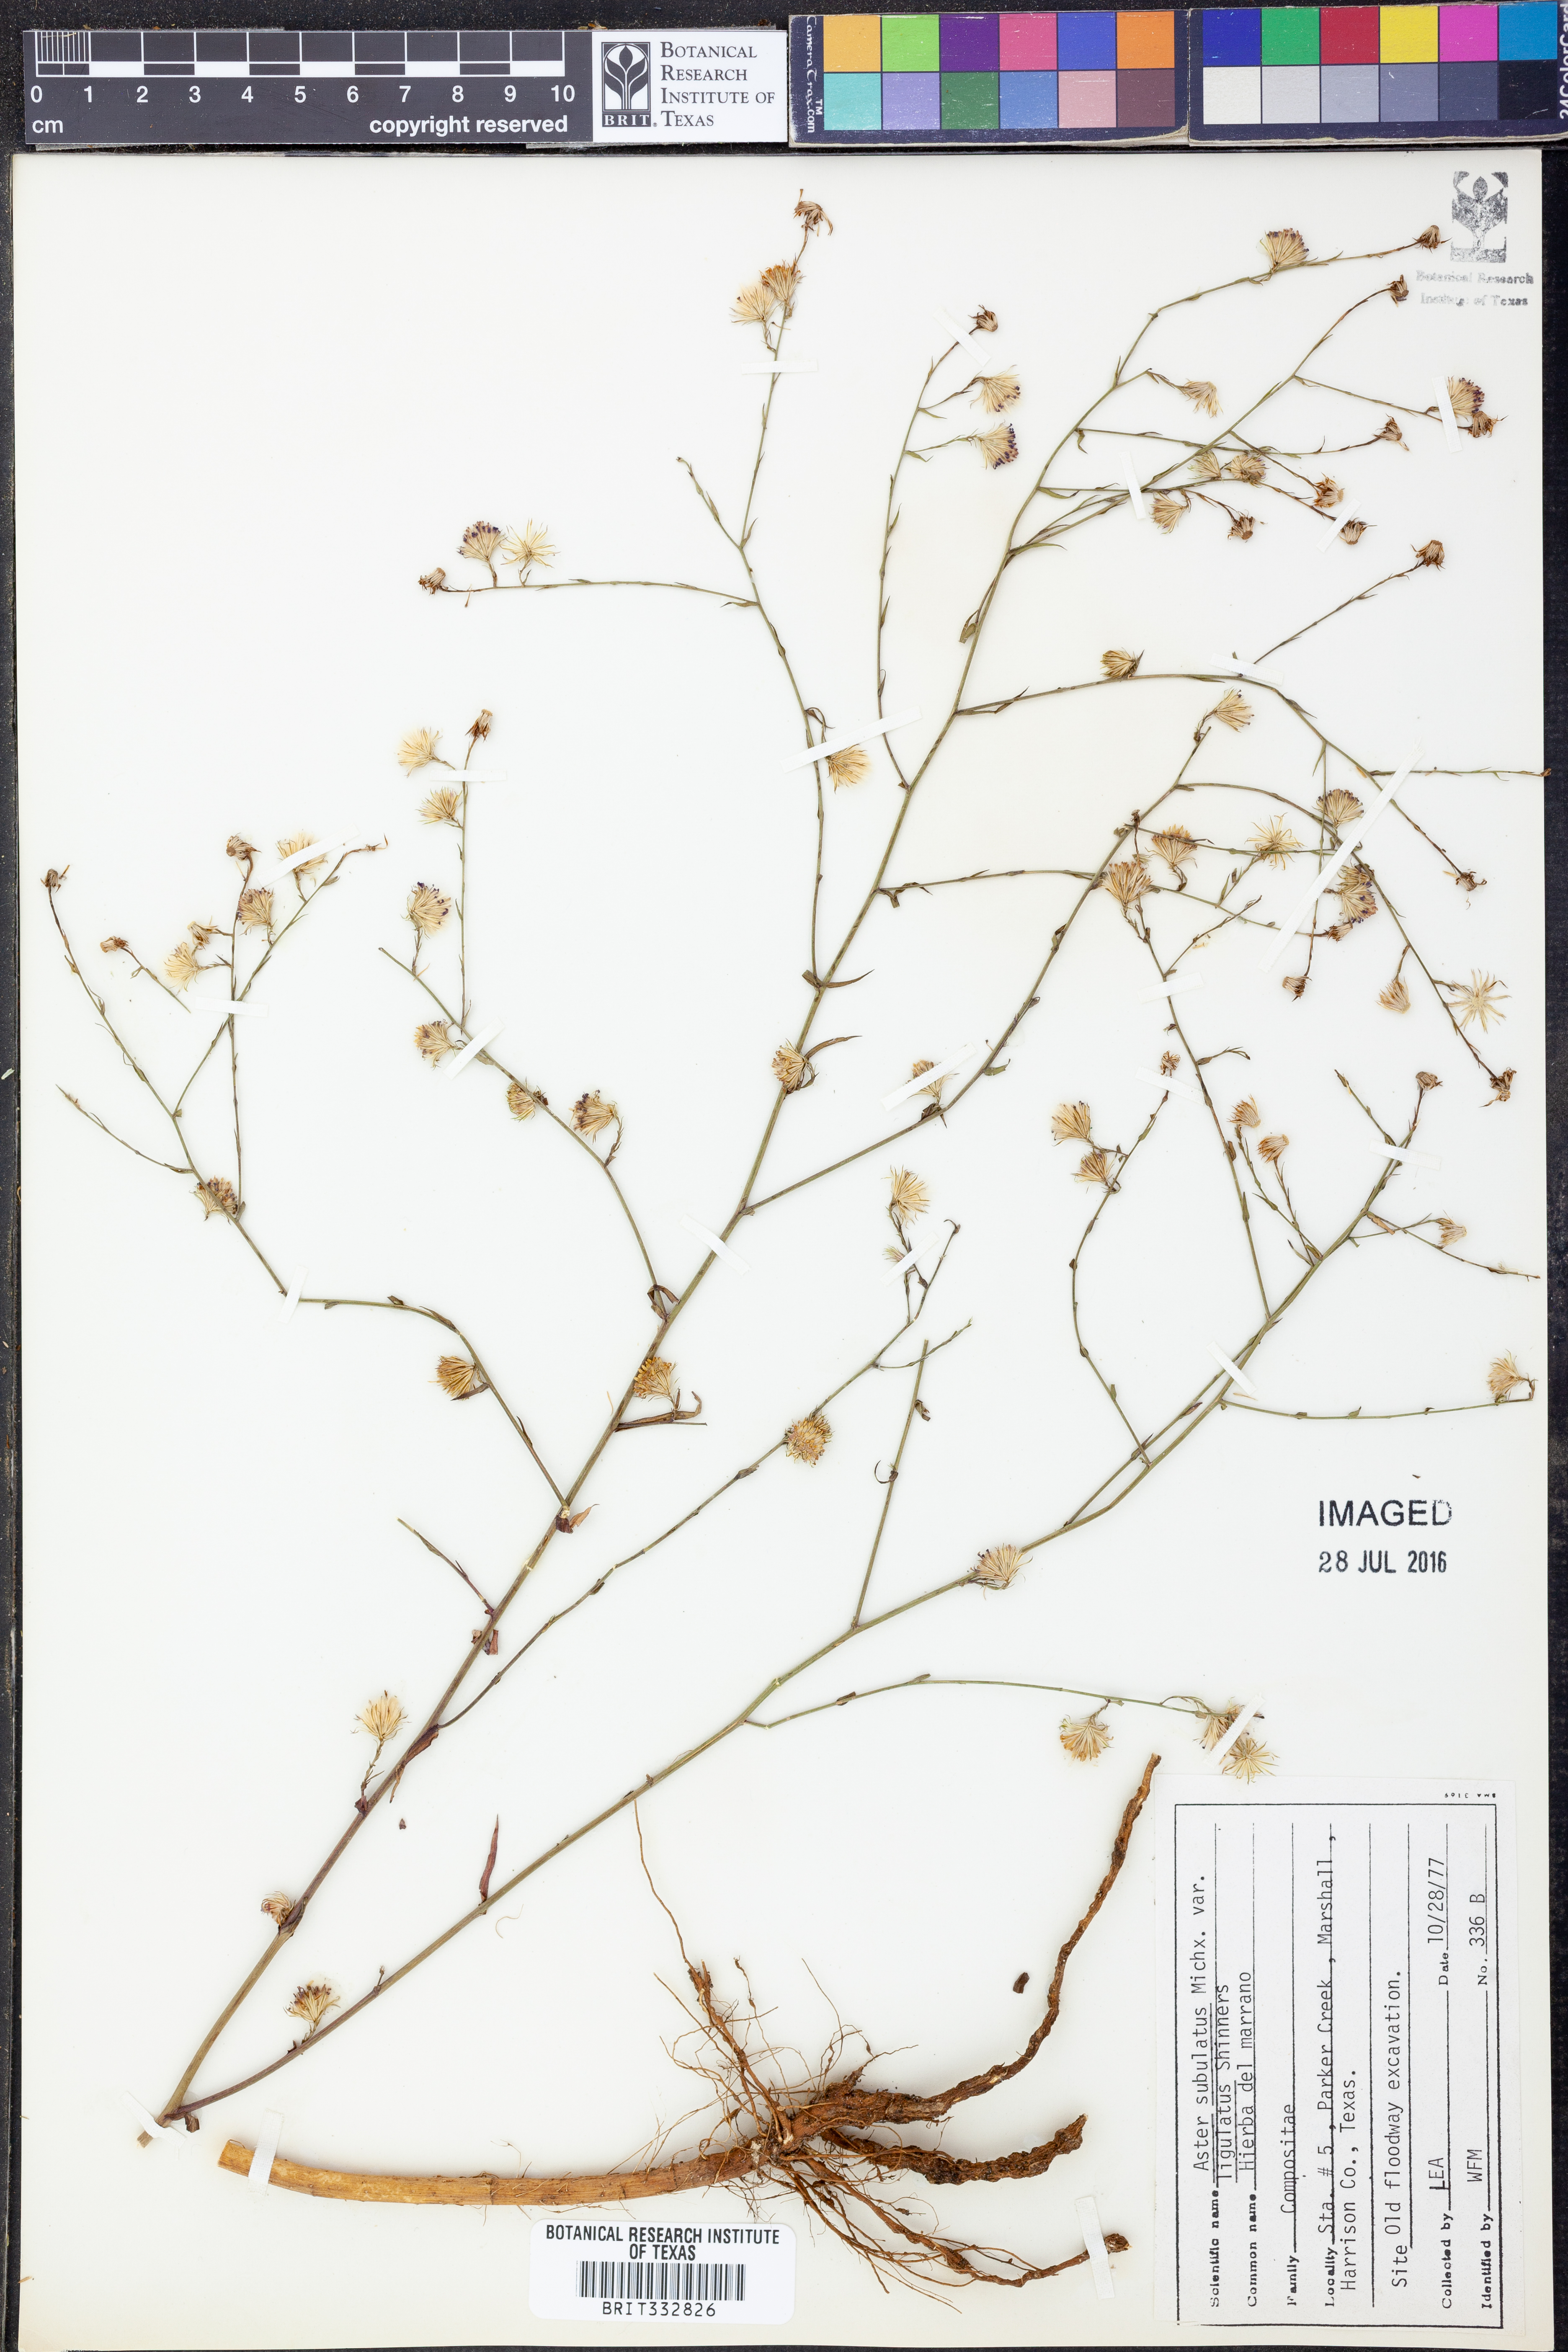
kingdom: Plantae
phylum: Tracheophyta
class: Magnoliopsida
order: Asterales
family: Asteraceae
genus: Symphyotrichum
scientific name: Symphyotrichum divaricatum
